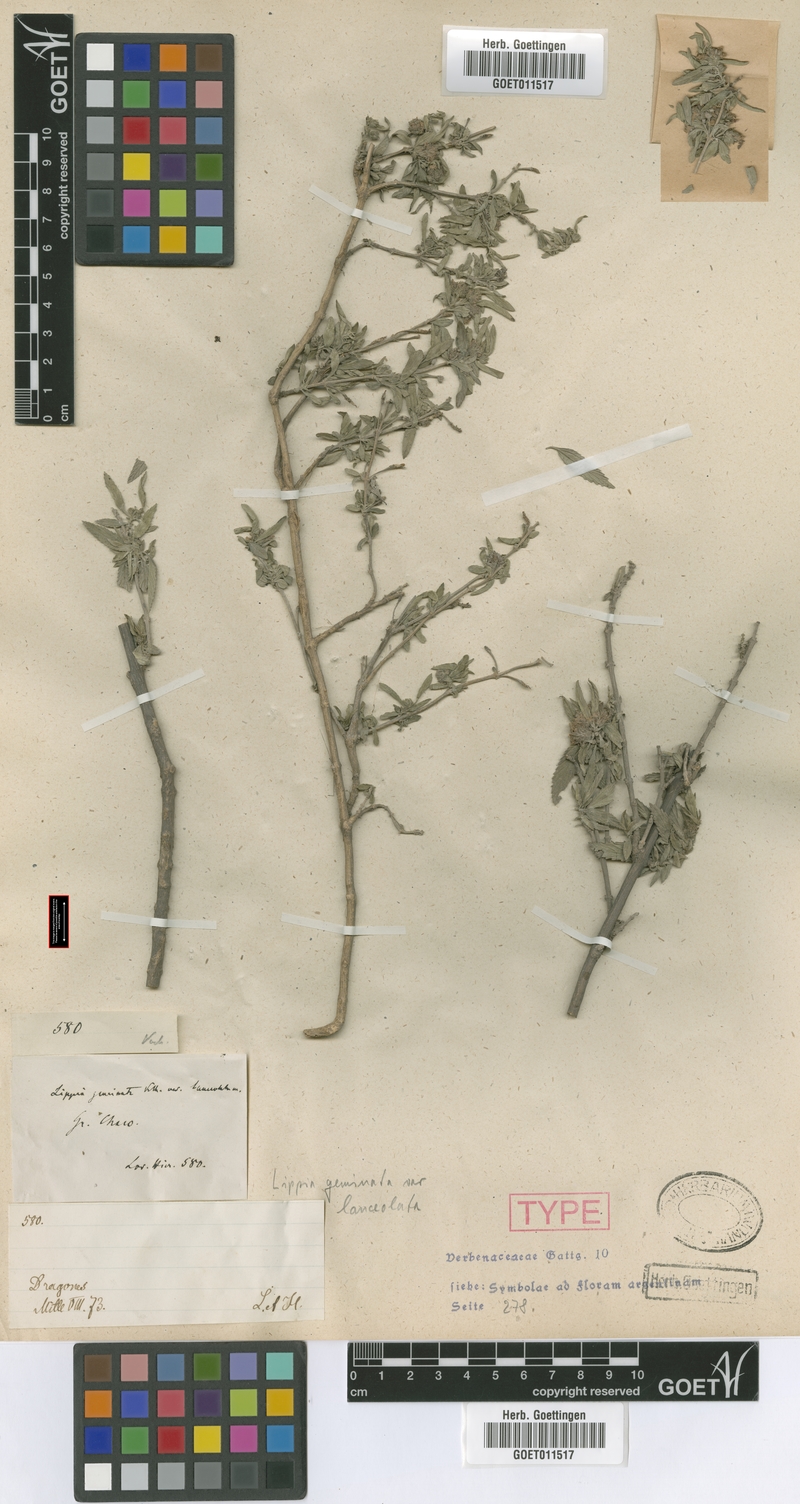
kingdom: Plantae
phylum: Tracheophyta
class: Magnoliopsida
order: Lamiales
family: Verbenaceae
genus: Lippia
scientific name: Lippia lorentzii
